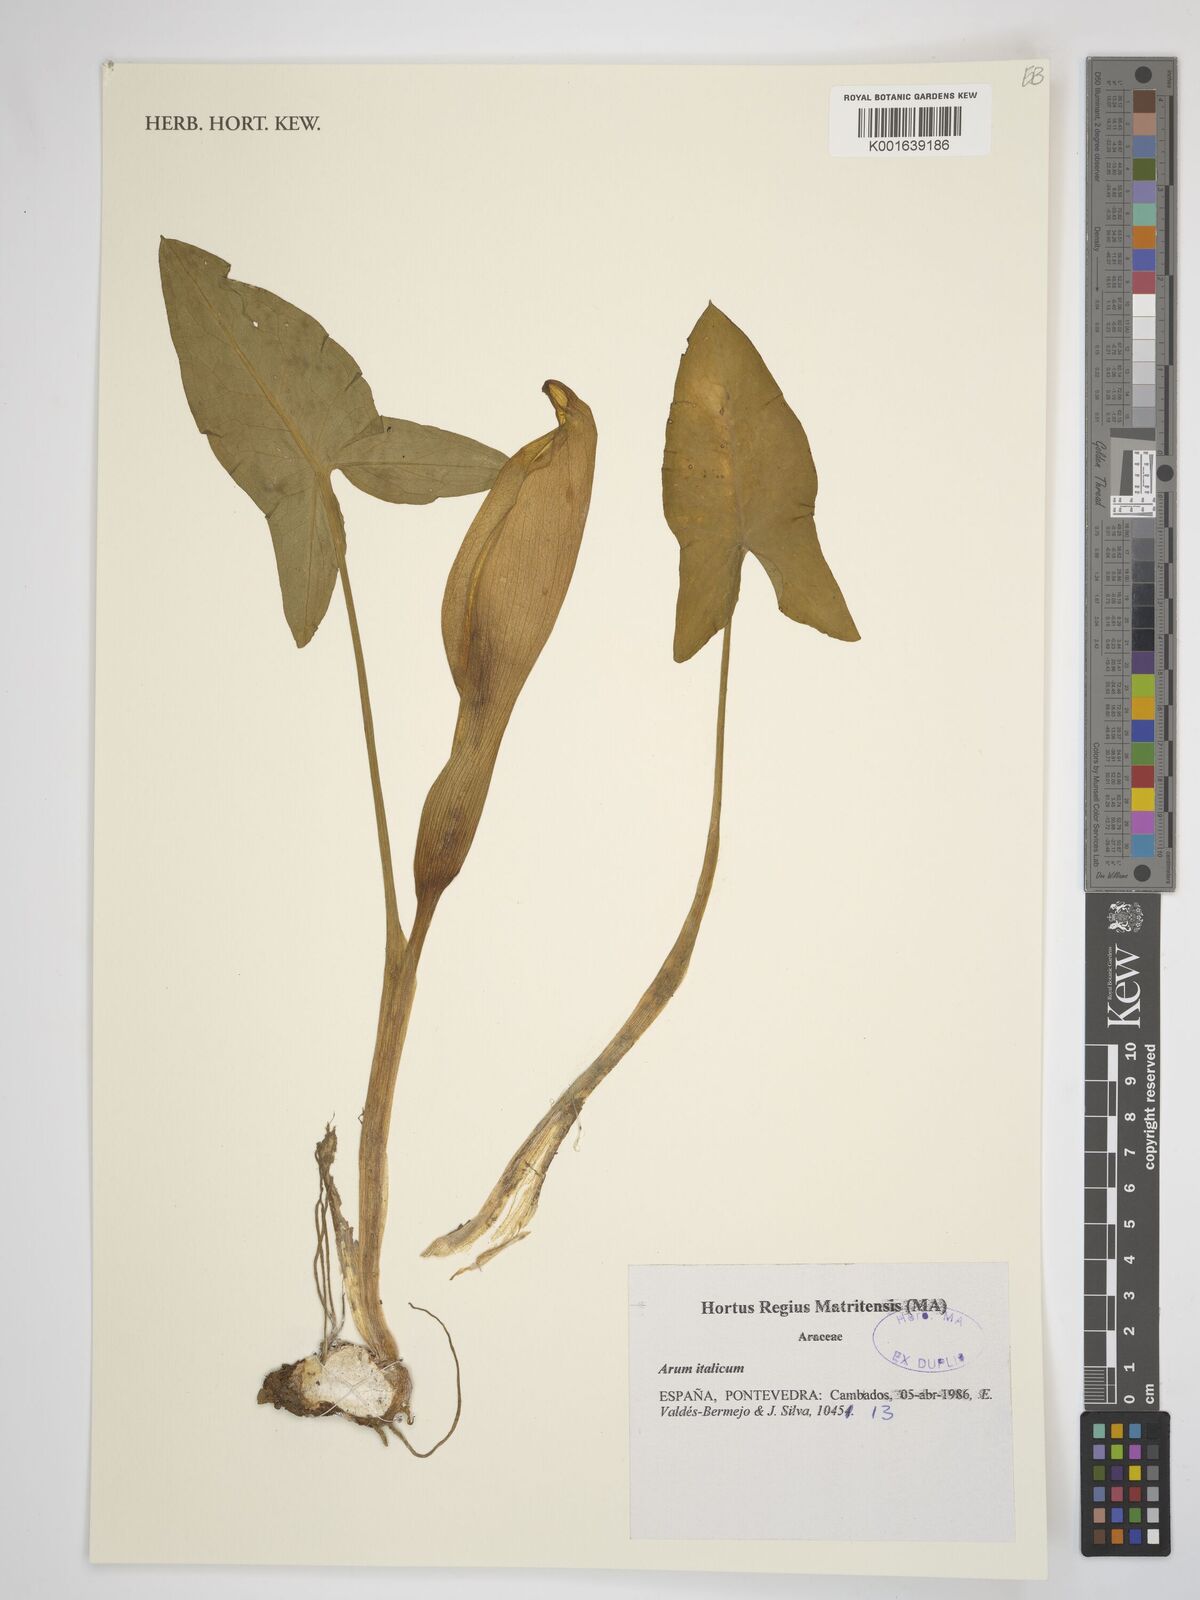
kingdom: Plantae
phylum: Tracheophyta
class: Liliopsida
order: Alismatales
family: Araceae
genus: Arum
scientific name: Arum italicum
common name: Italian lords-and-ladies
